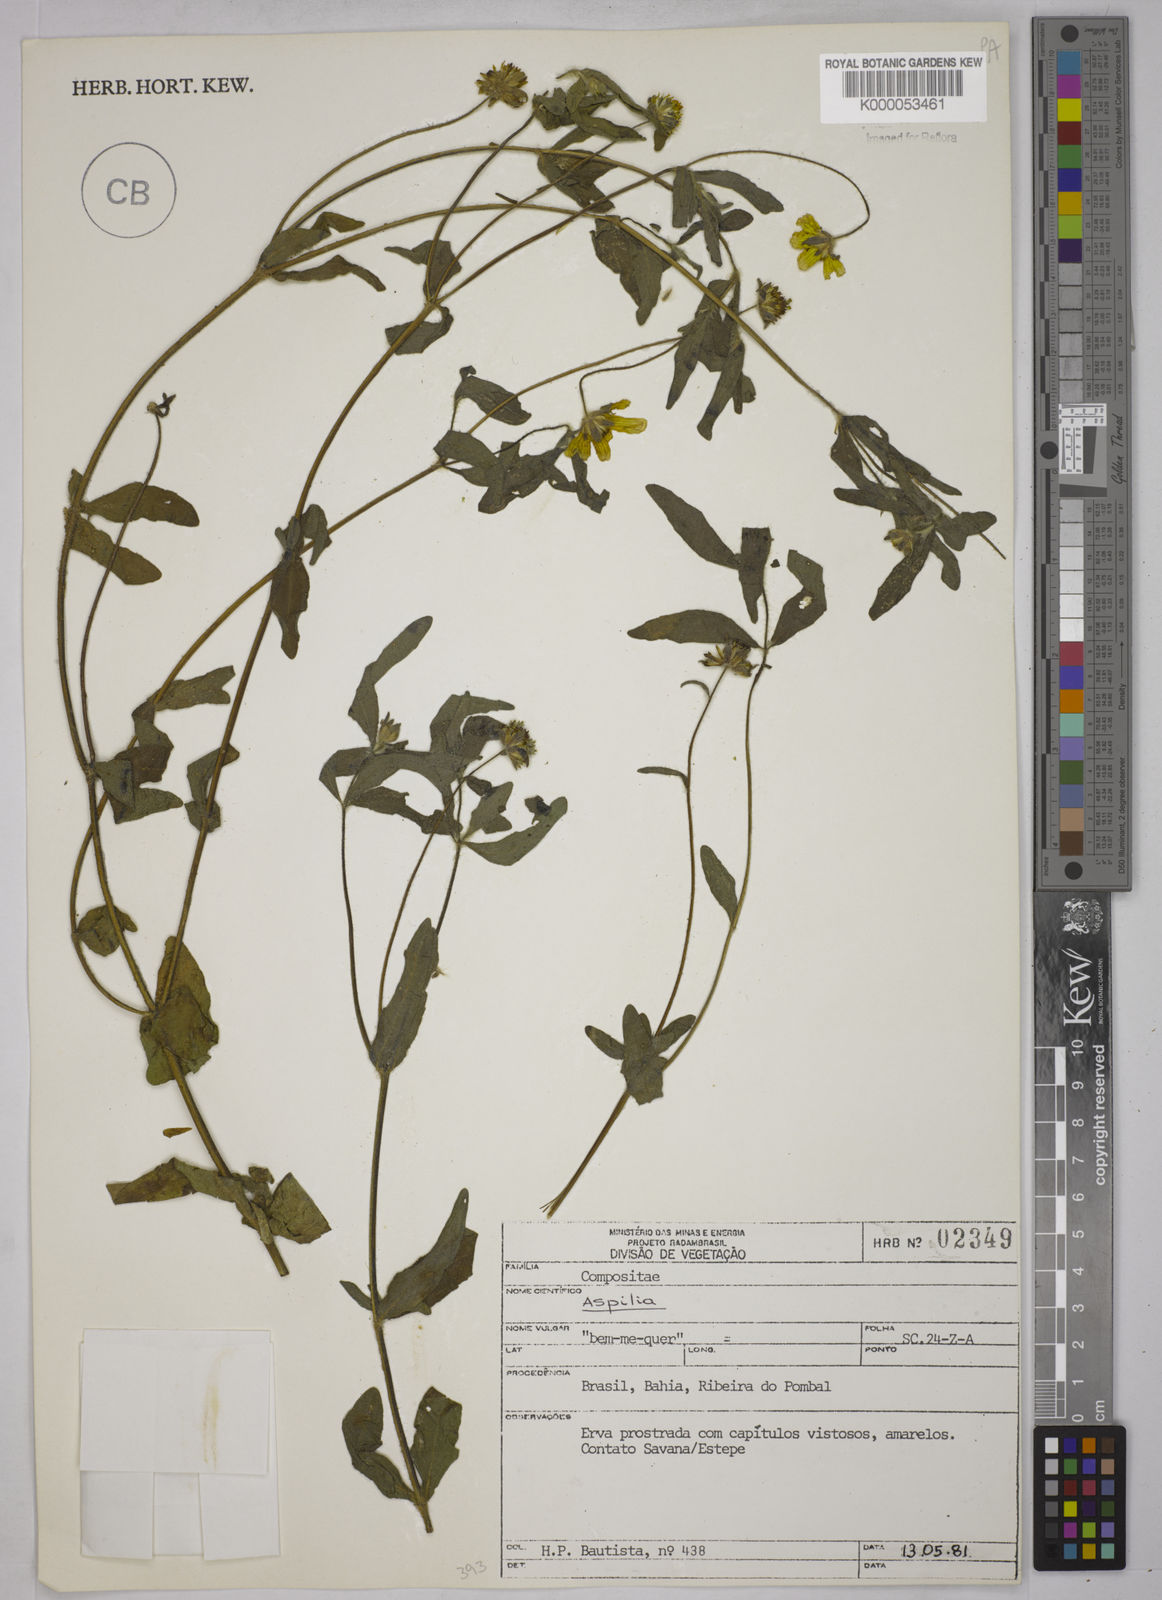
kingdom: Plantae
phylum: Tracheophyta
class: Magnoliopsida
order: Asterales
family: Asteraceae
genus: Aspilia
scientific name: Aspilia
